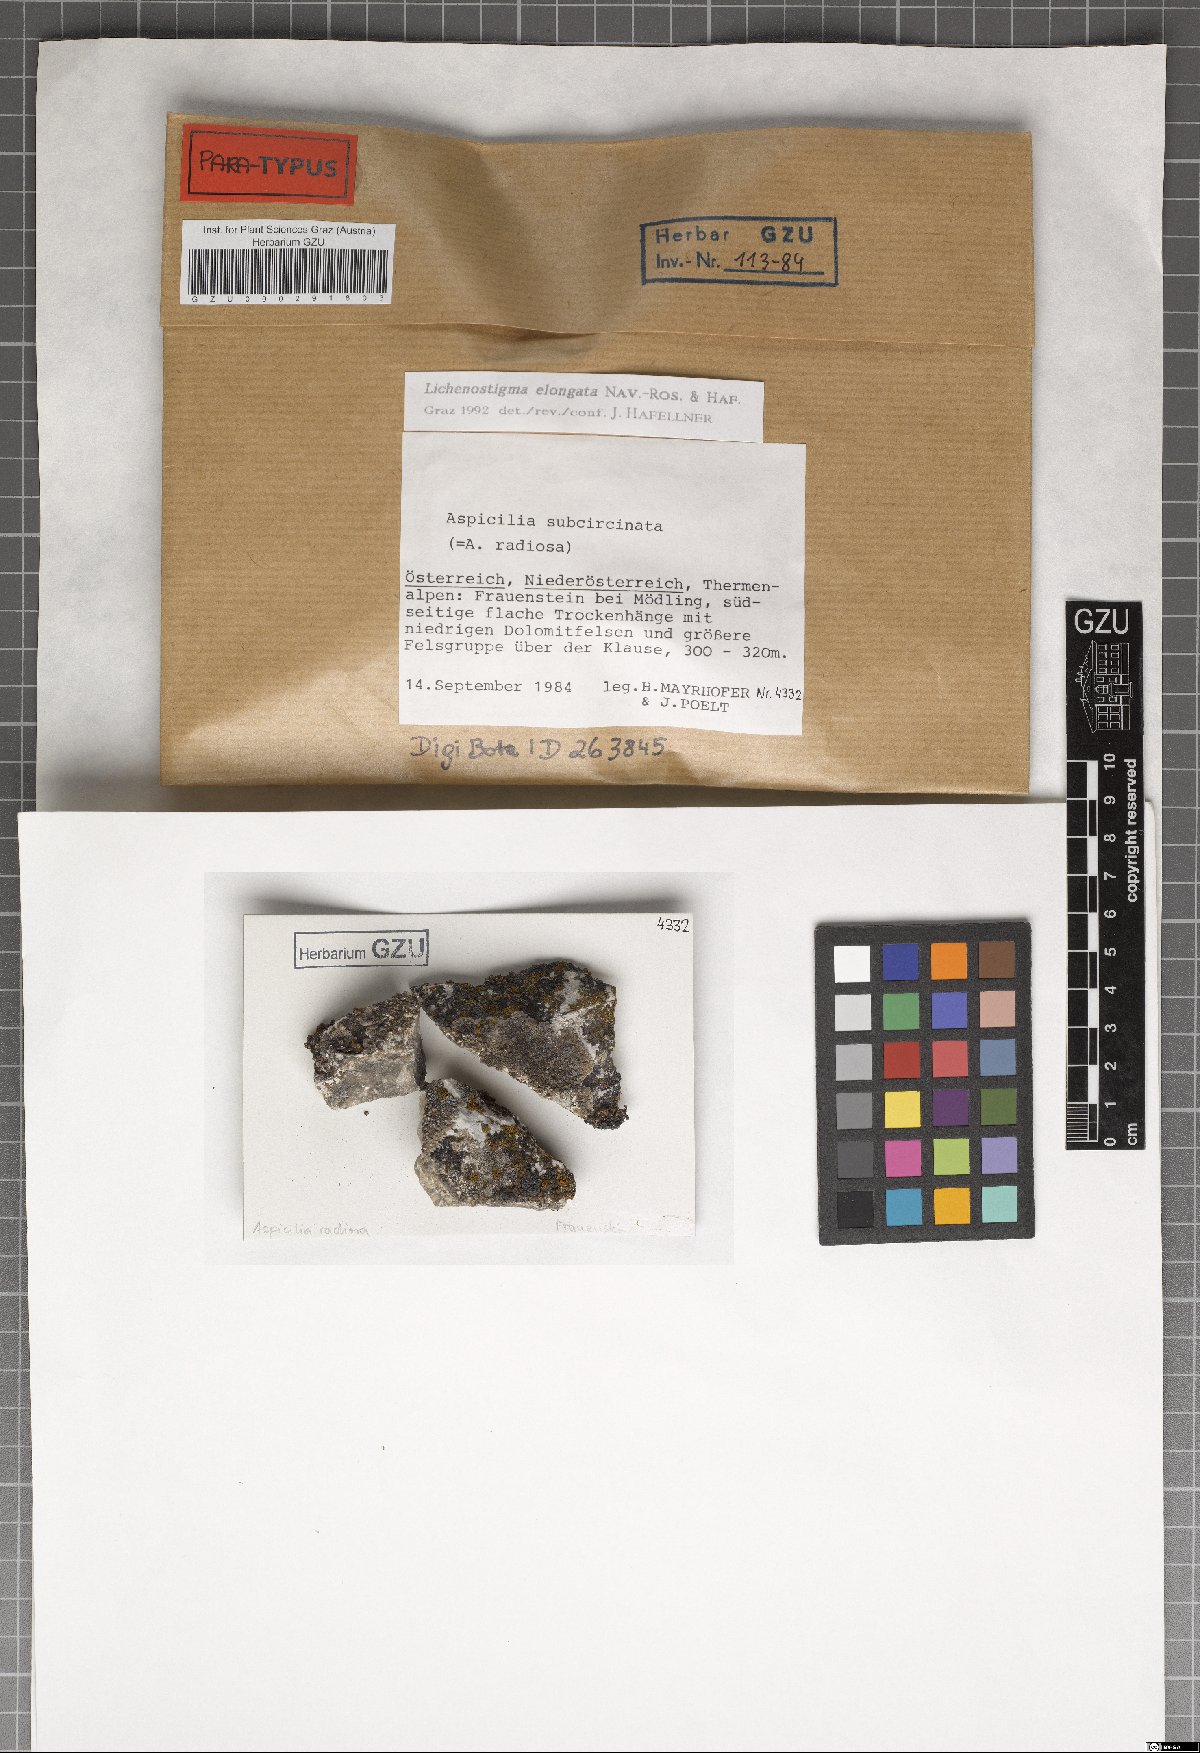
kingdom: Fungi
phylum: Ascomycota
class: Arthoniomycetes
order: Lichenostigmatales
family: Phaeococcomycetaceae
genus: Lichenostigma
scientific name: Lichenostigma elongatum
